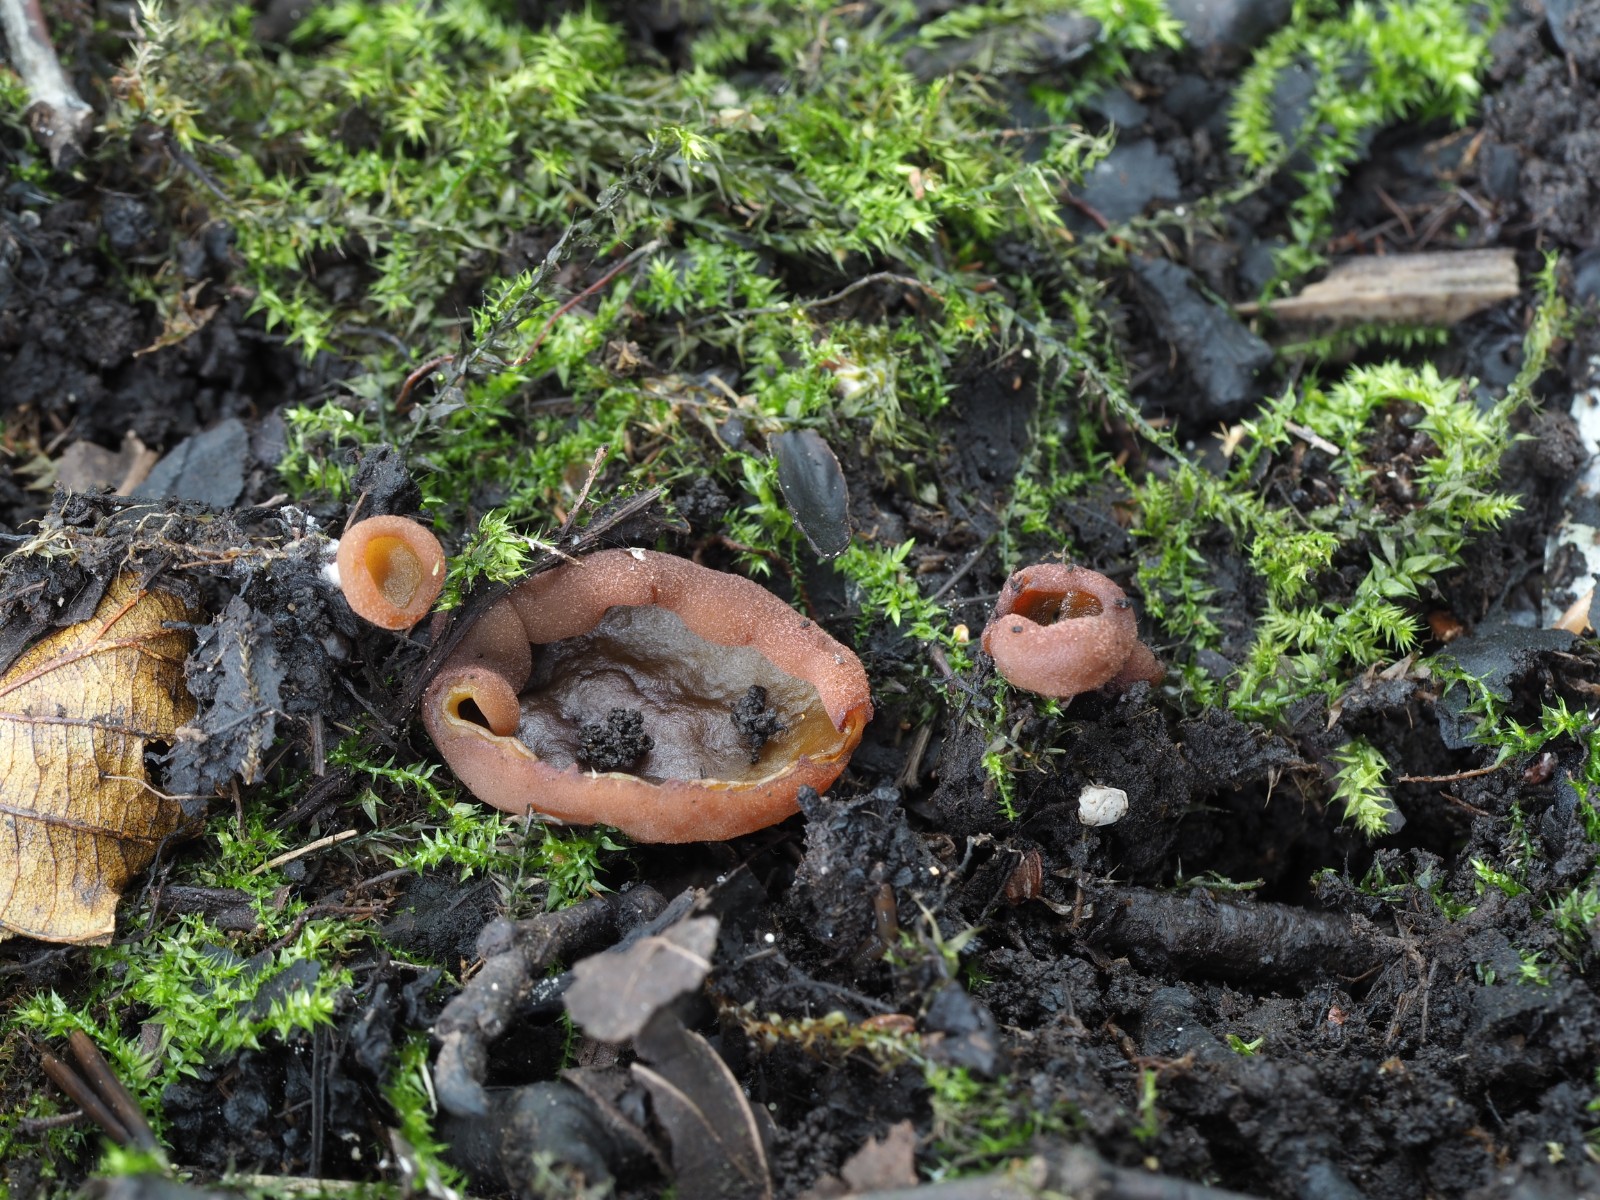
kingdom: Fungi
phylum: Ascomycota
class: Pezizomycetes
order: Pezizales
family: Pezizaceae
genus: Legaliana
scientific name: Legaliana limnaea
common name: mose-bægersvamp
